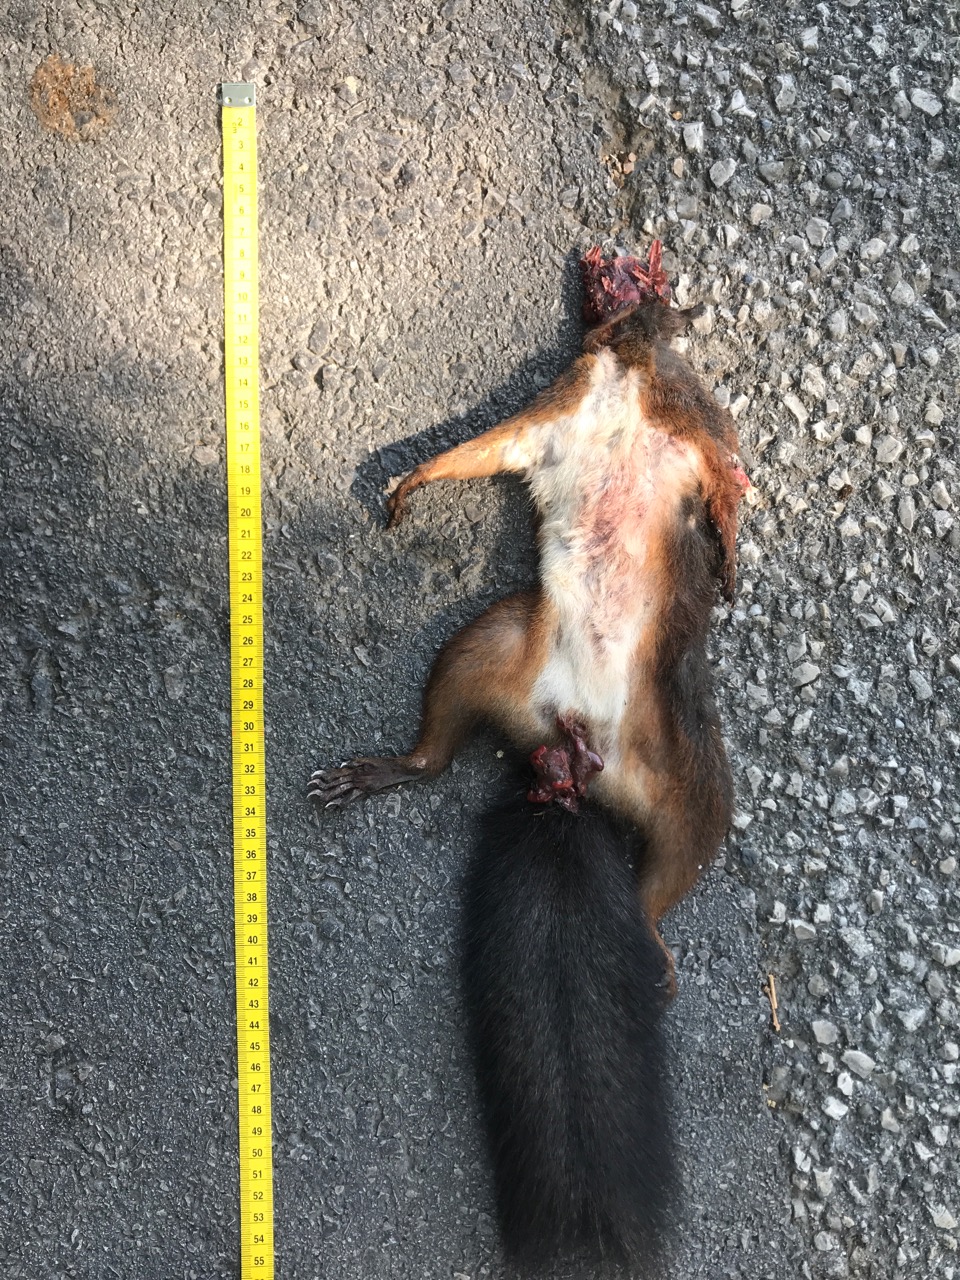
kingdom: Animalia
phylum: Chordata
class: Mammalia
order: Rodentia
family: Sciuridae
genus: Sciurus
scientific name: Sciurus vulgaris
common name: Eurasian red squirrel
